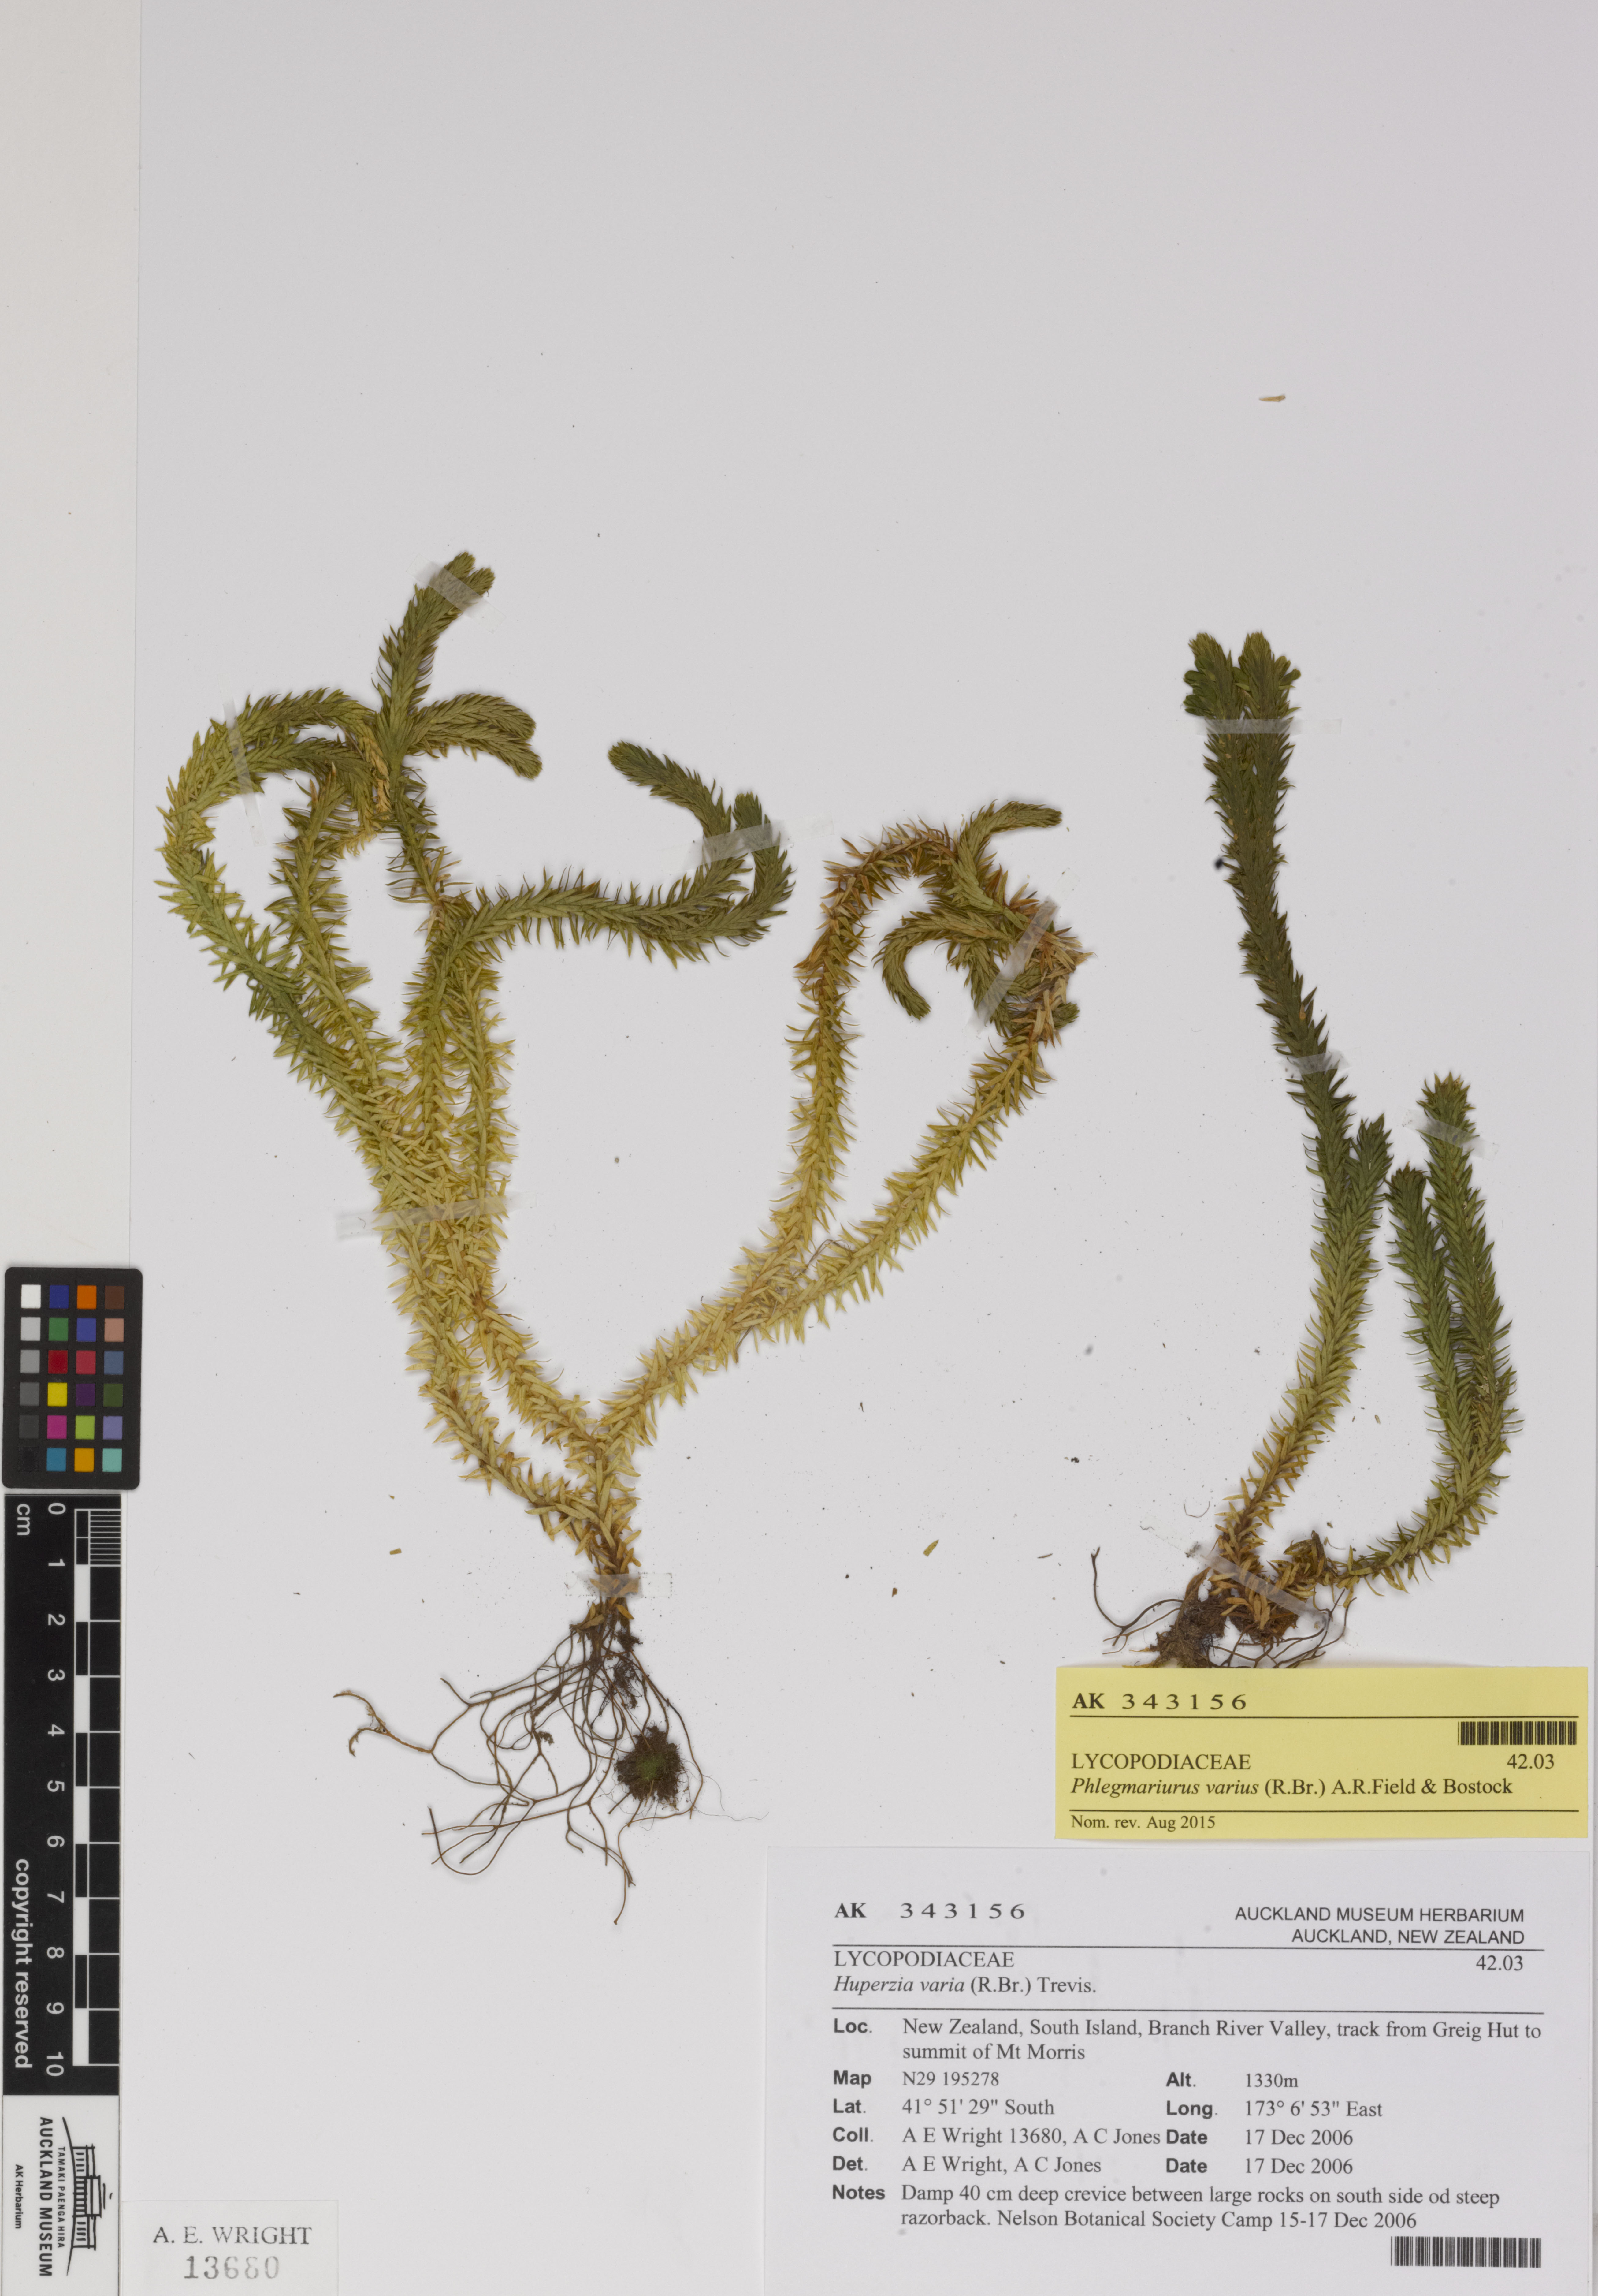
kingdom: Plantae
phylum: Tracheophyta
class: Lycopodiopsida
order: Lycopodiales
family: Lycopodiaceae
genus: Huperzia
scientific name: Huperzia australiana
